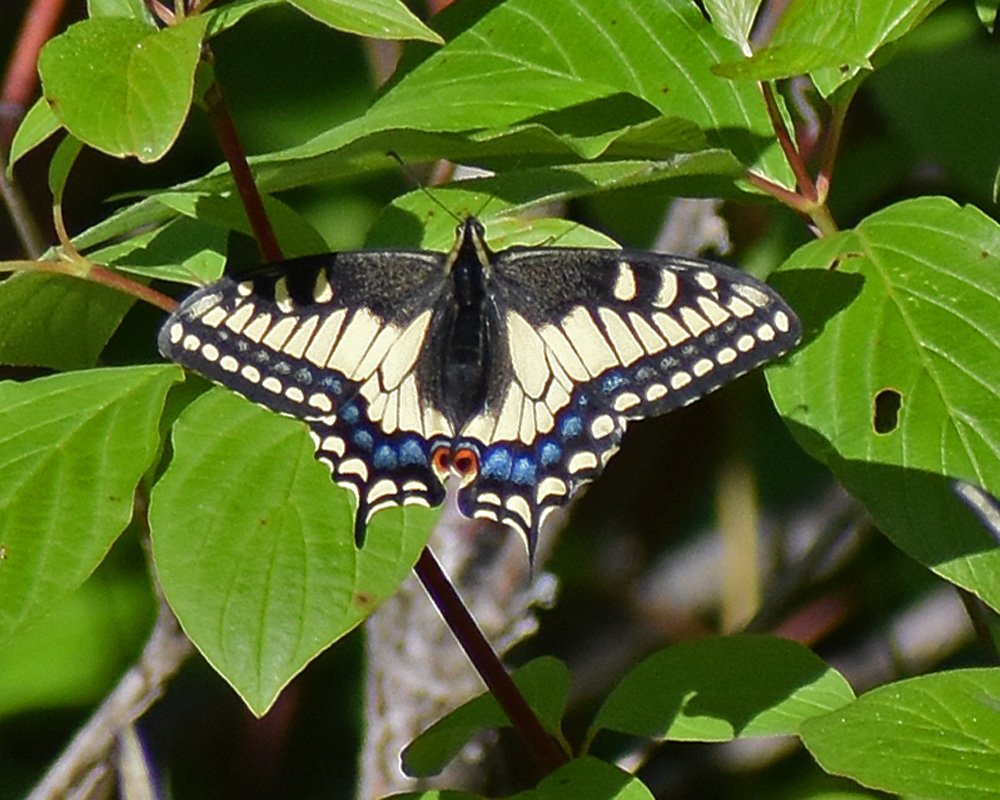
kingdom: Animalia
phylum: Arthropoda
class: Insecta
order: Lepidoptera
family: Papilionidae
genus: Papilio
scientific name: Papilio zelicaon
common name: Anise Swallowtail
